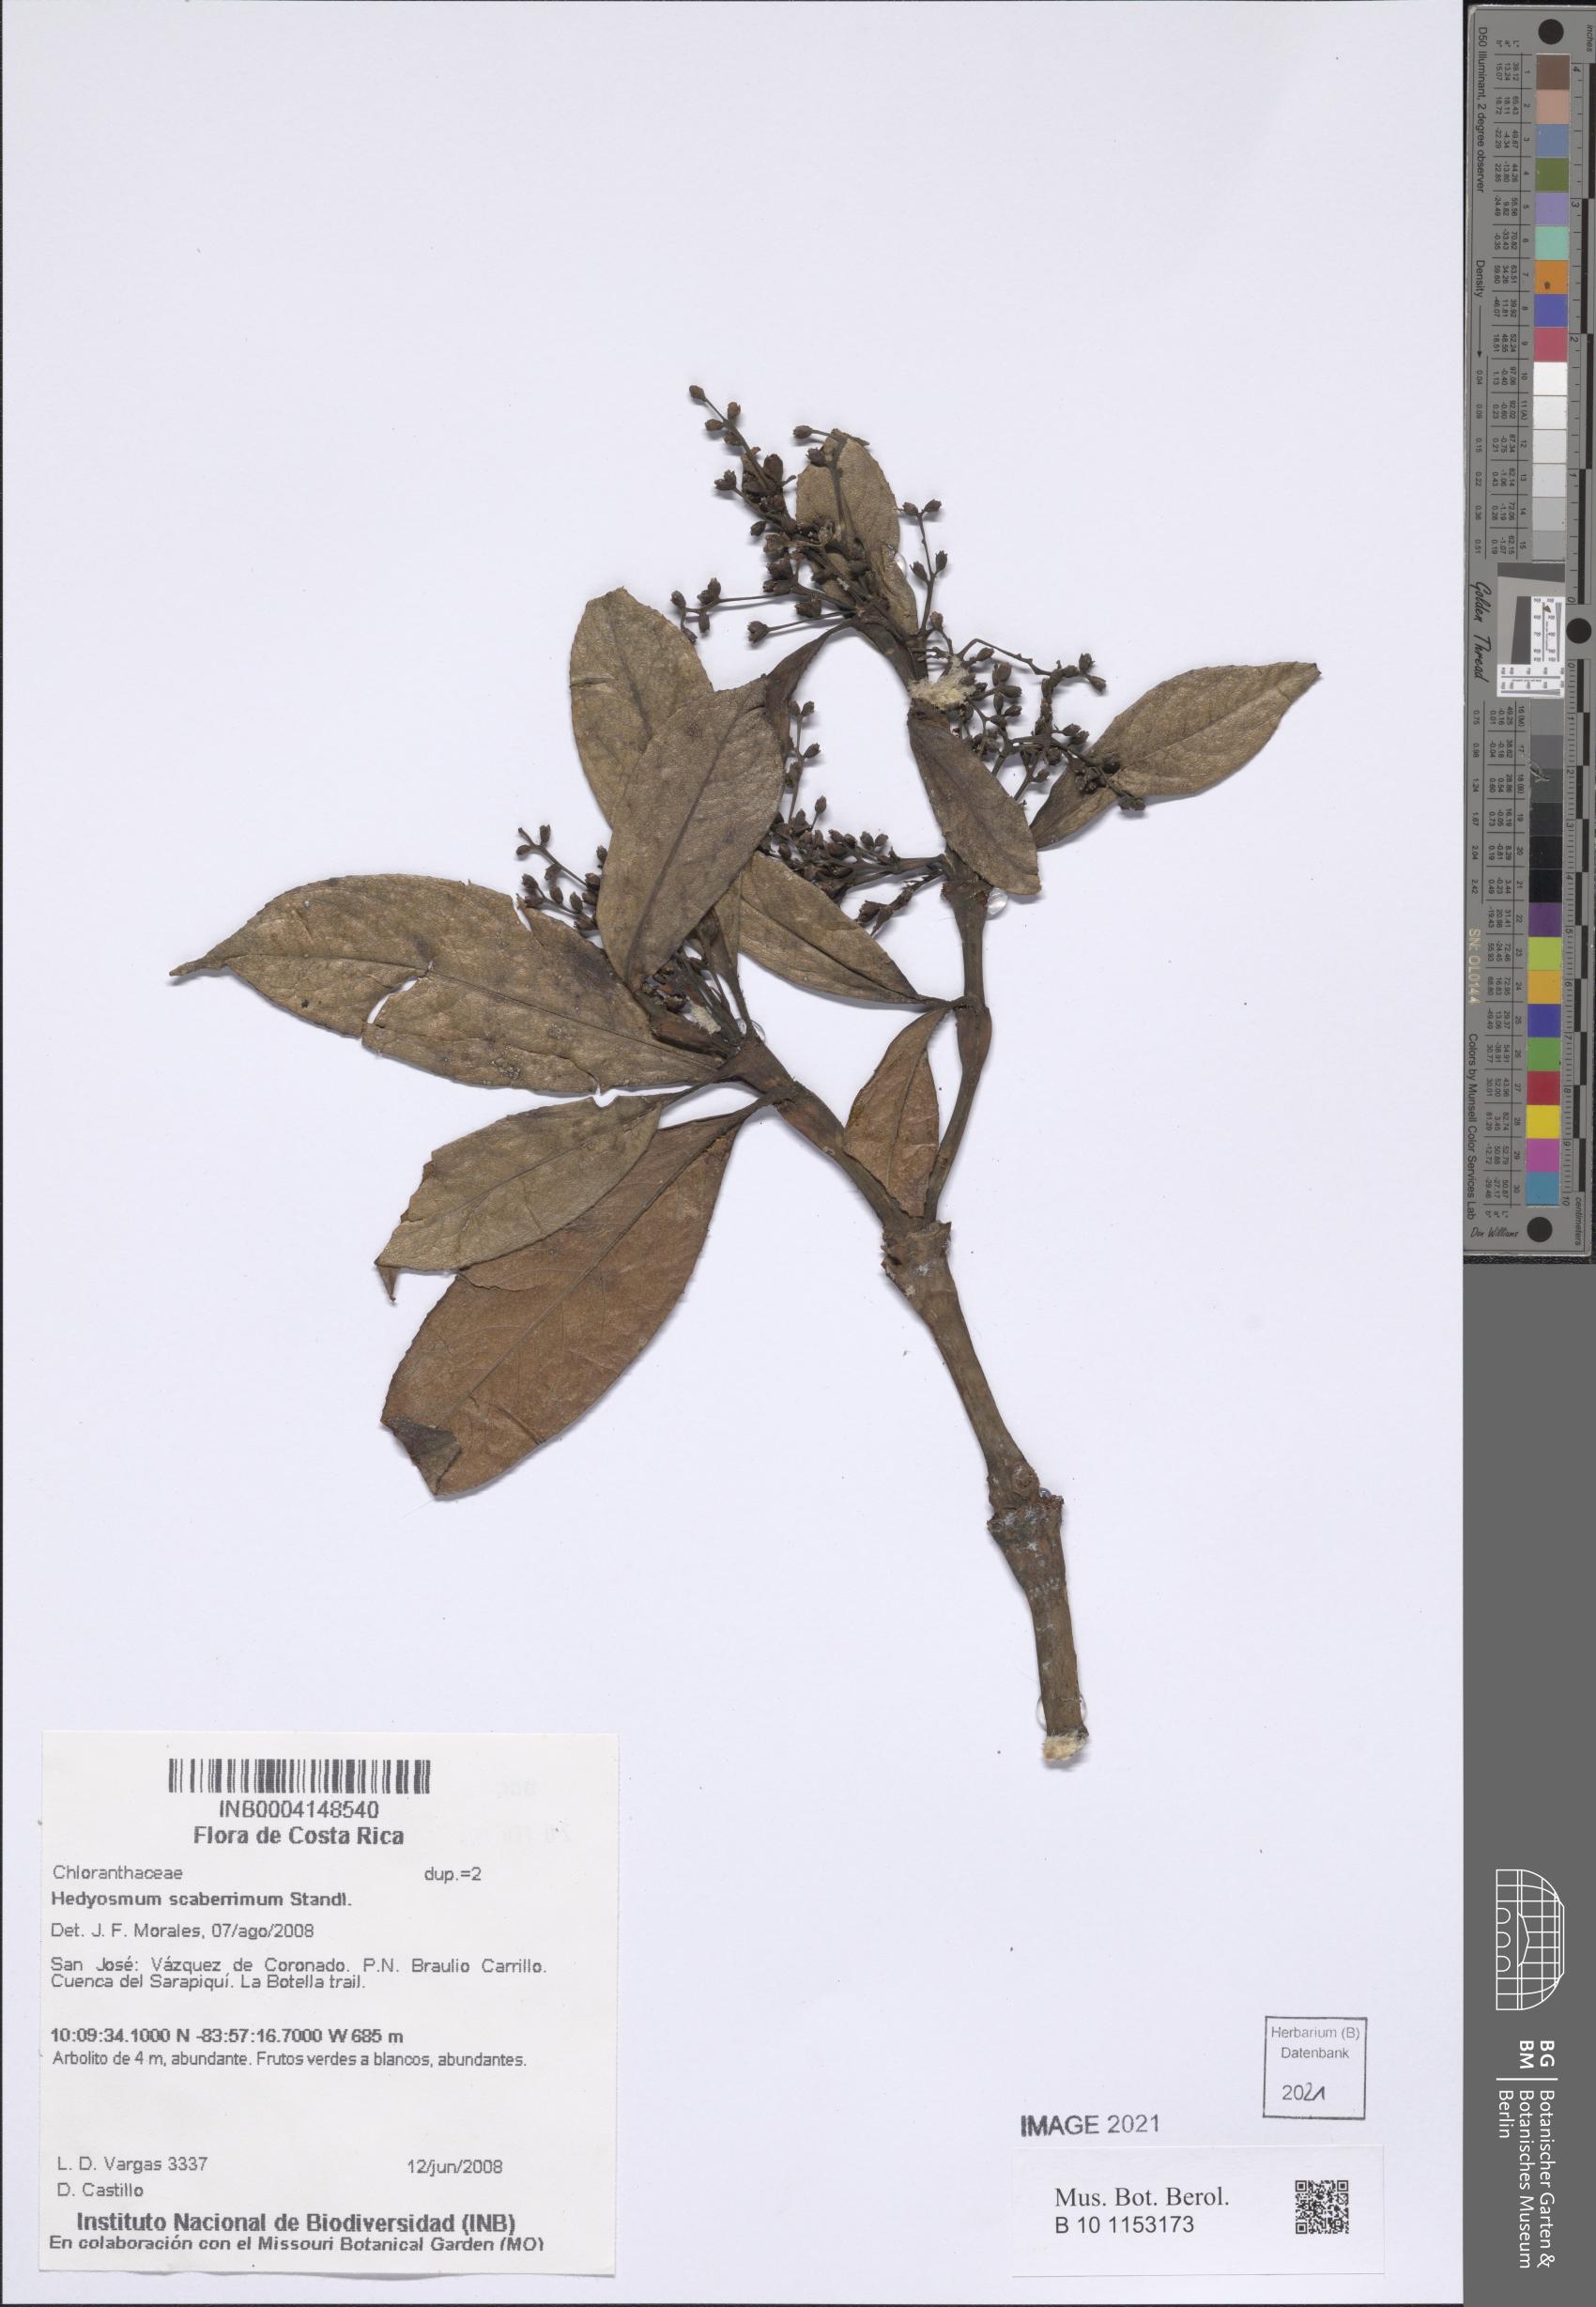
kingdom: Plantae
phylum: Tracheophyta
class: Magnoliopsida
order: Chloranthales
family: Chloranthaceae
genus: Hedyosmum
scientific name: Hedyosmum scaberrimum
